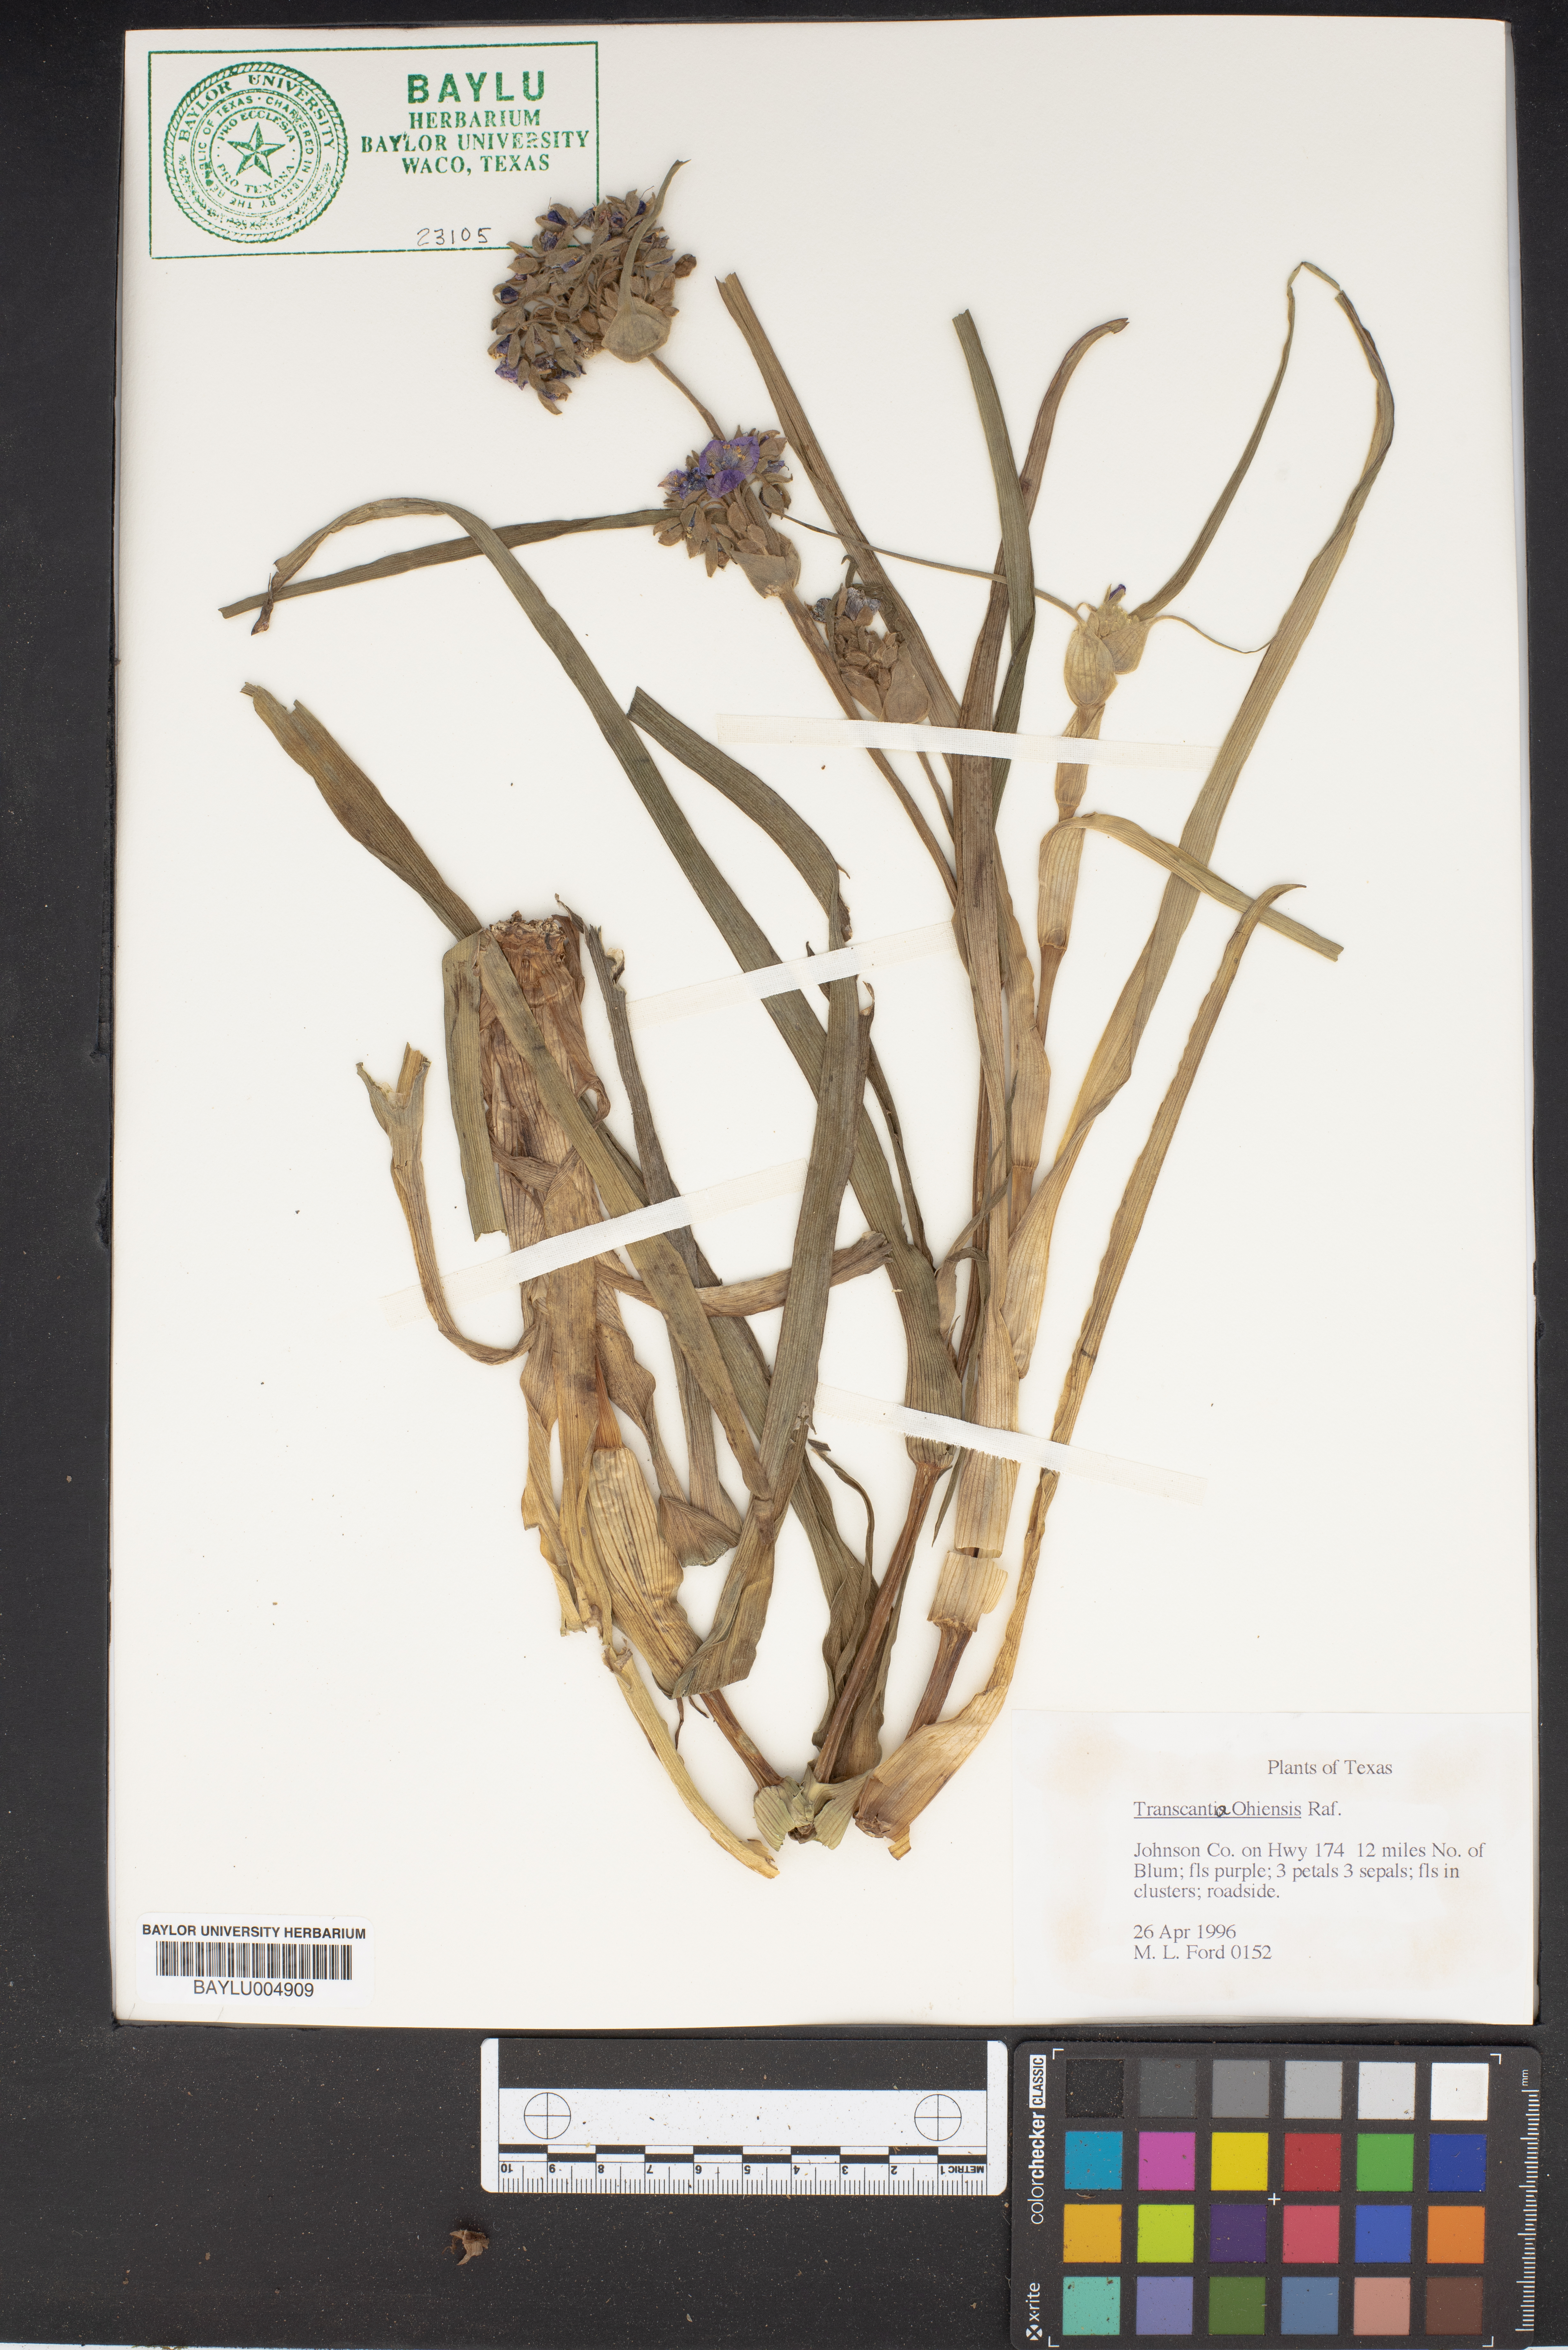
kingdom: Plantae
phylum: Tracheophyta
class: Liliopsida
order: Commelinales
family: Commelinaceae
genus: Tradescantia
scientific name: Tradescantia ohiensis
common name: Ohio spiderwort
